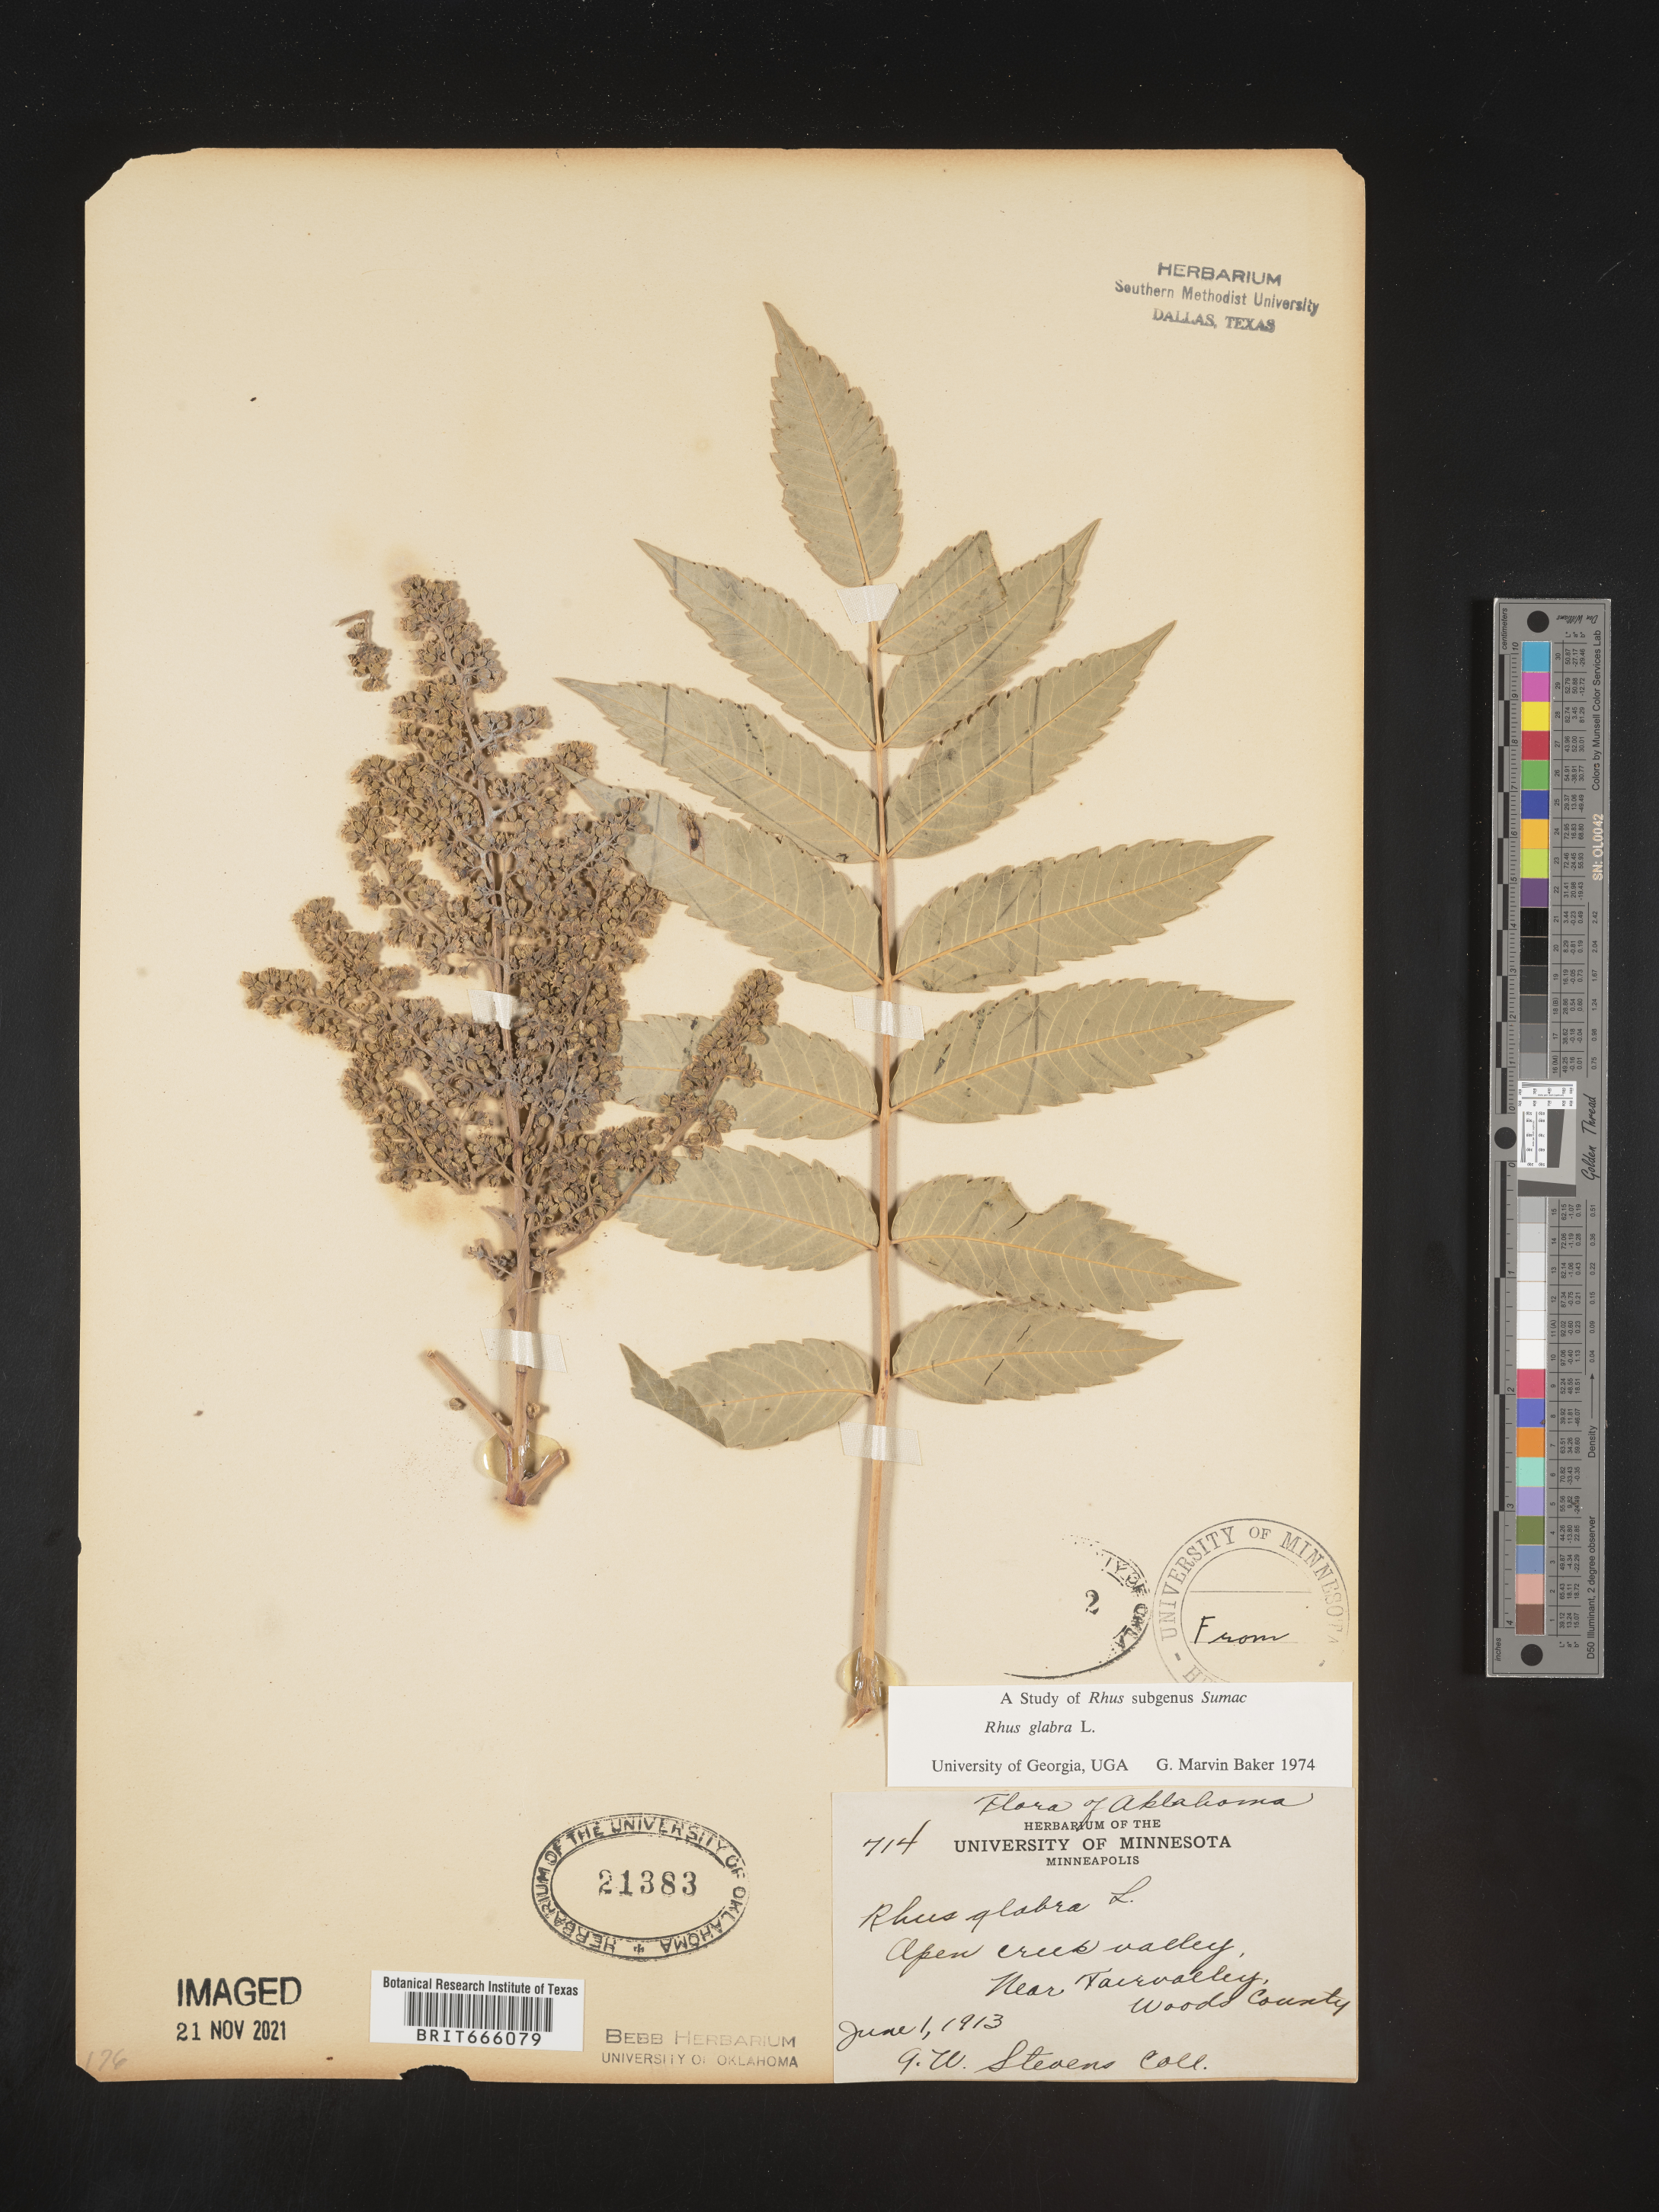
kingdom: Plantae
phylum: Tracheophyta
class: Magnoliopsida
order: Sapindales
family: Anacardiaceae
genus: Rhus
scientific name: Rhus glabra
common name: Scarlet sumac
